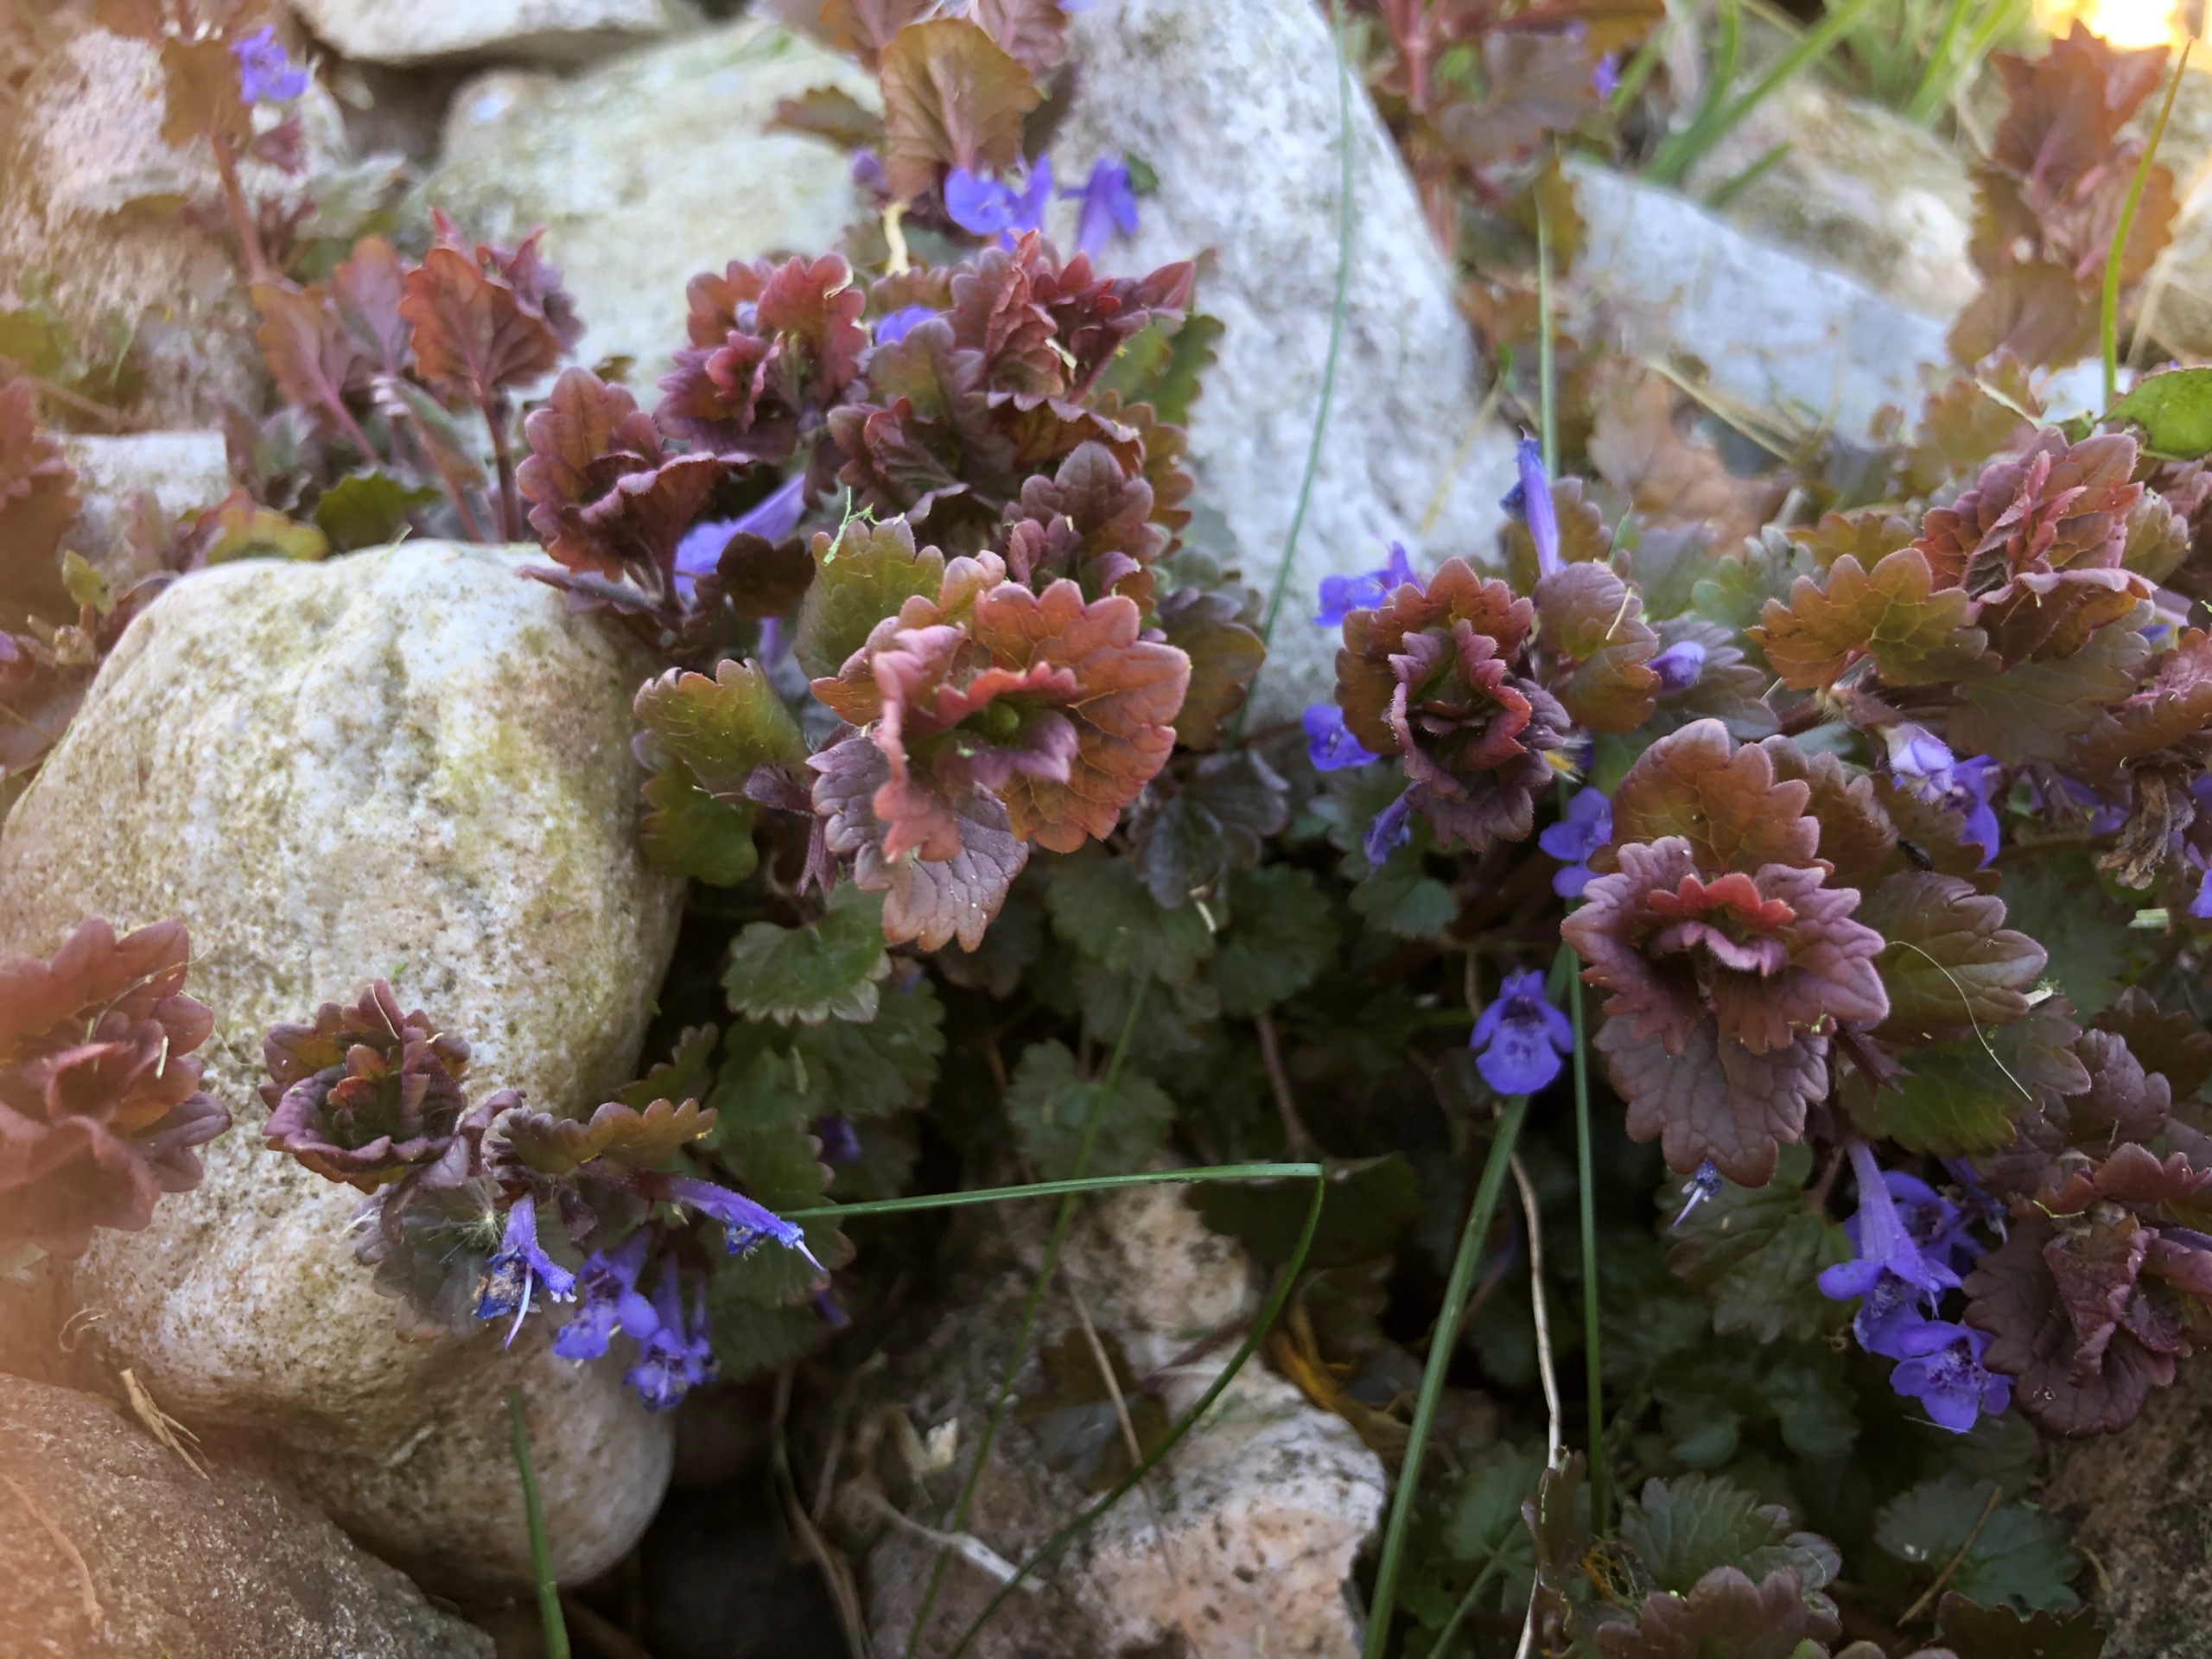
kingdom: Plantae
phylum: Tracheophyta
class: Magnoliopsida
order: Lamiales
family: Lamiaceae
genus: Glechoma
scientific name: Glechoma hederacea
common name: Korsknap
